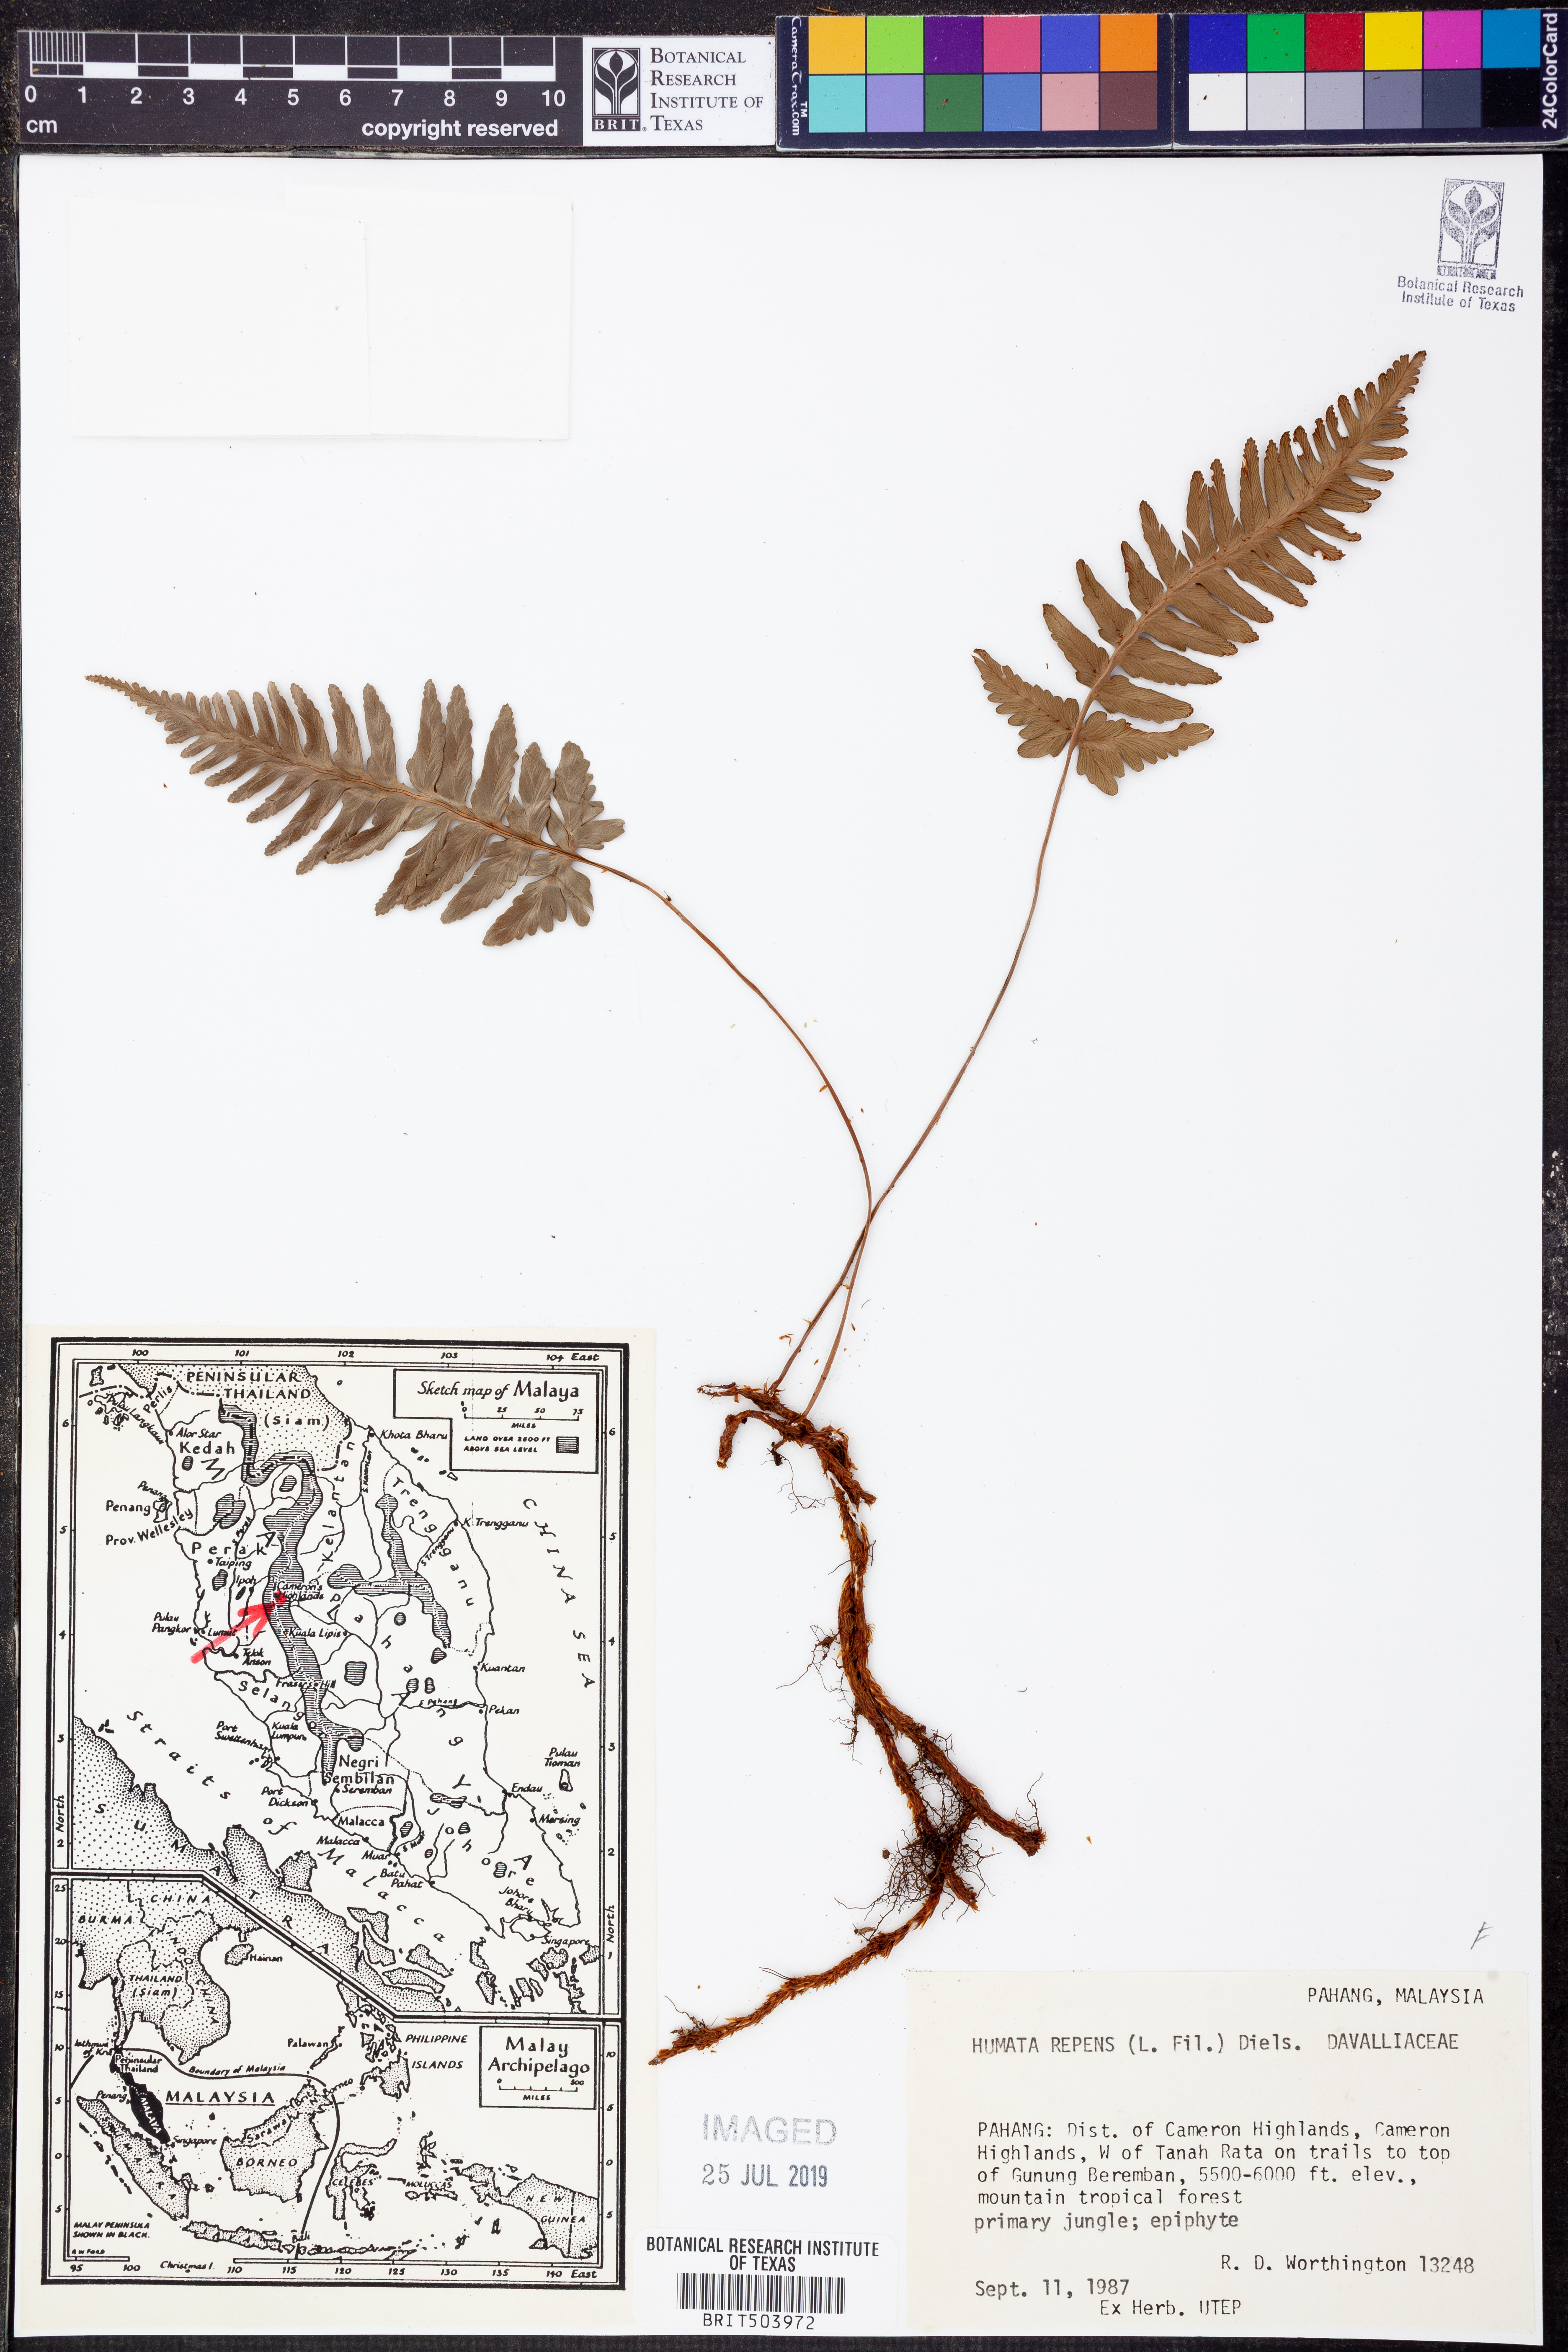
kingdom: Plantae
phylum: Tracheophyta
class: Polypodiopsida
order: Polypodiales
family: Davalliaceae
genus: Davallia
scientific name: Davallia repens
